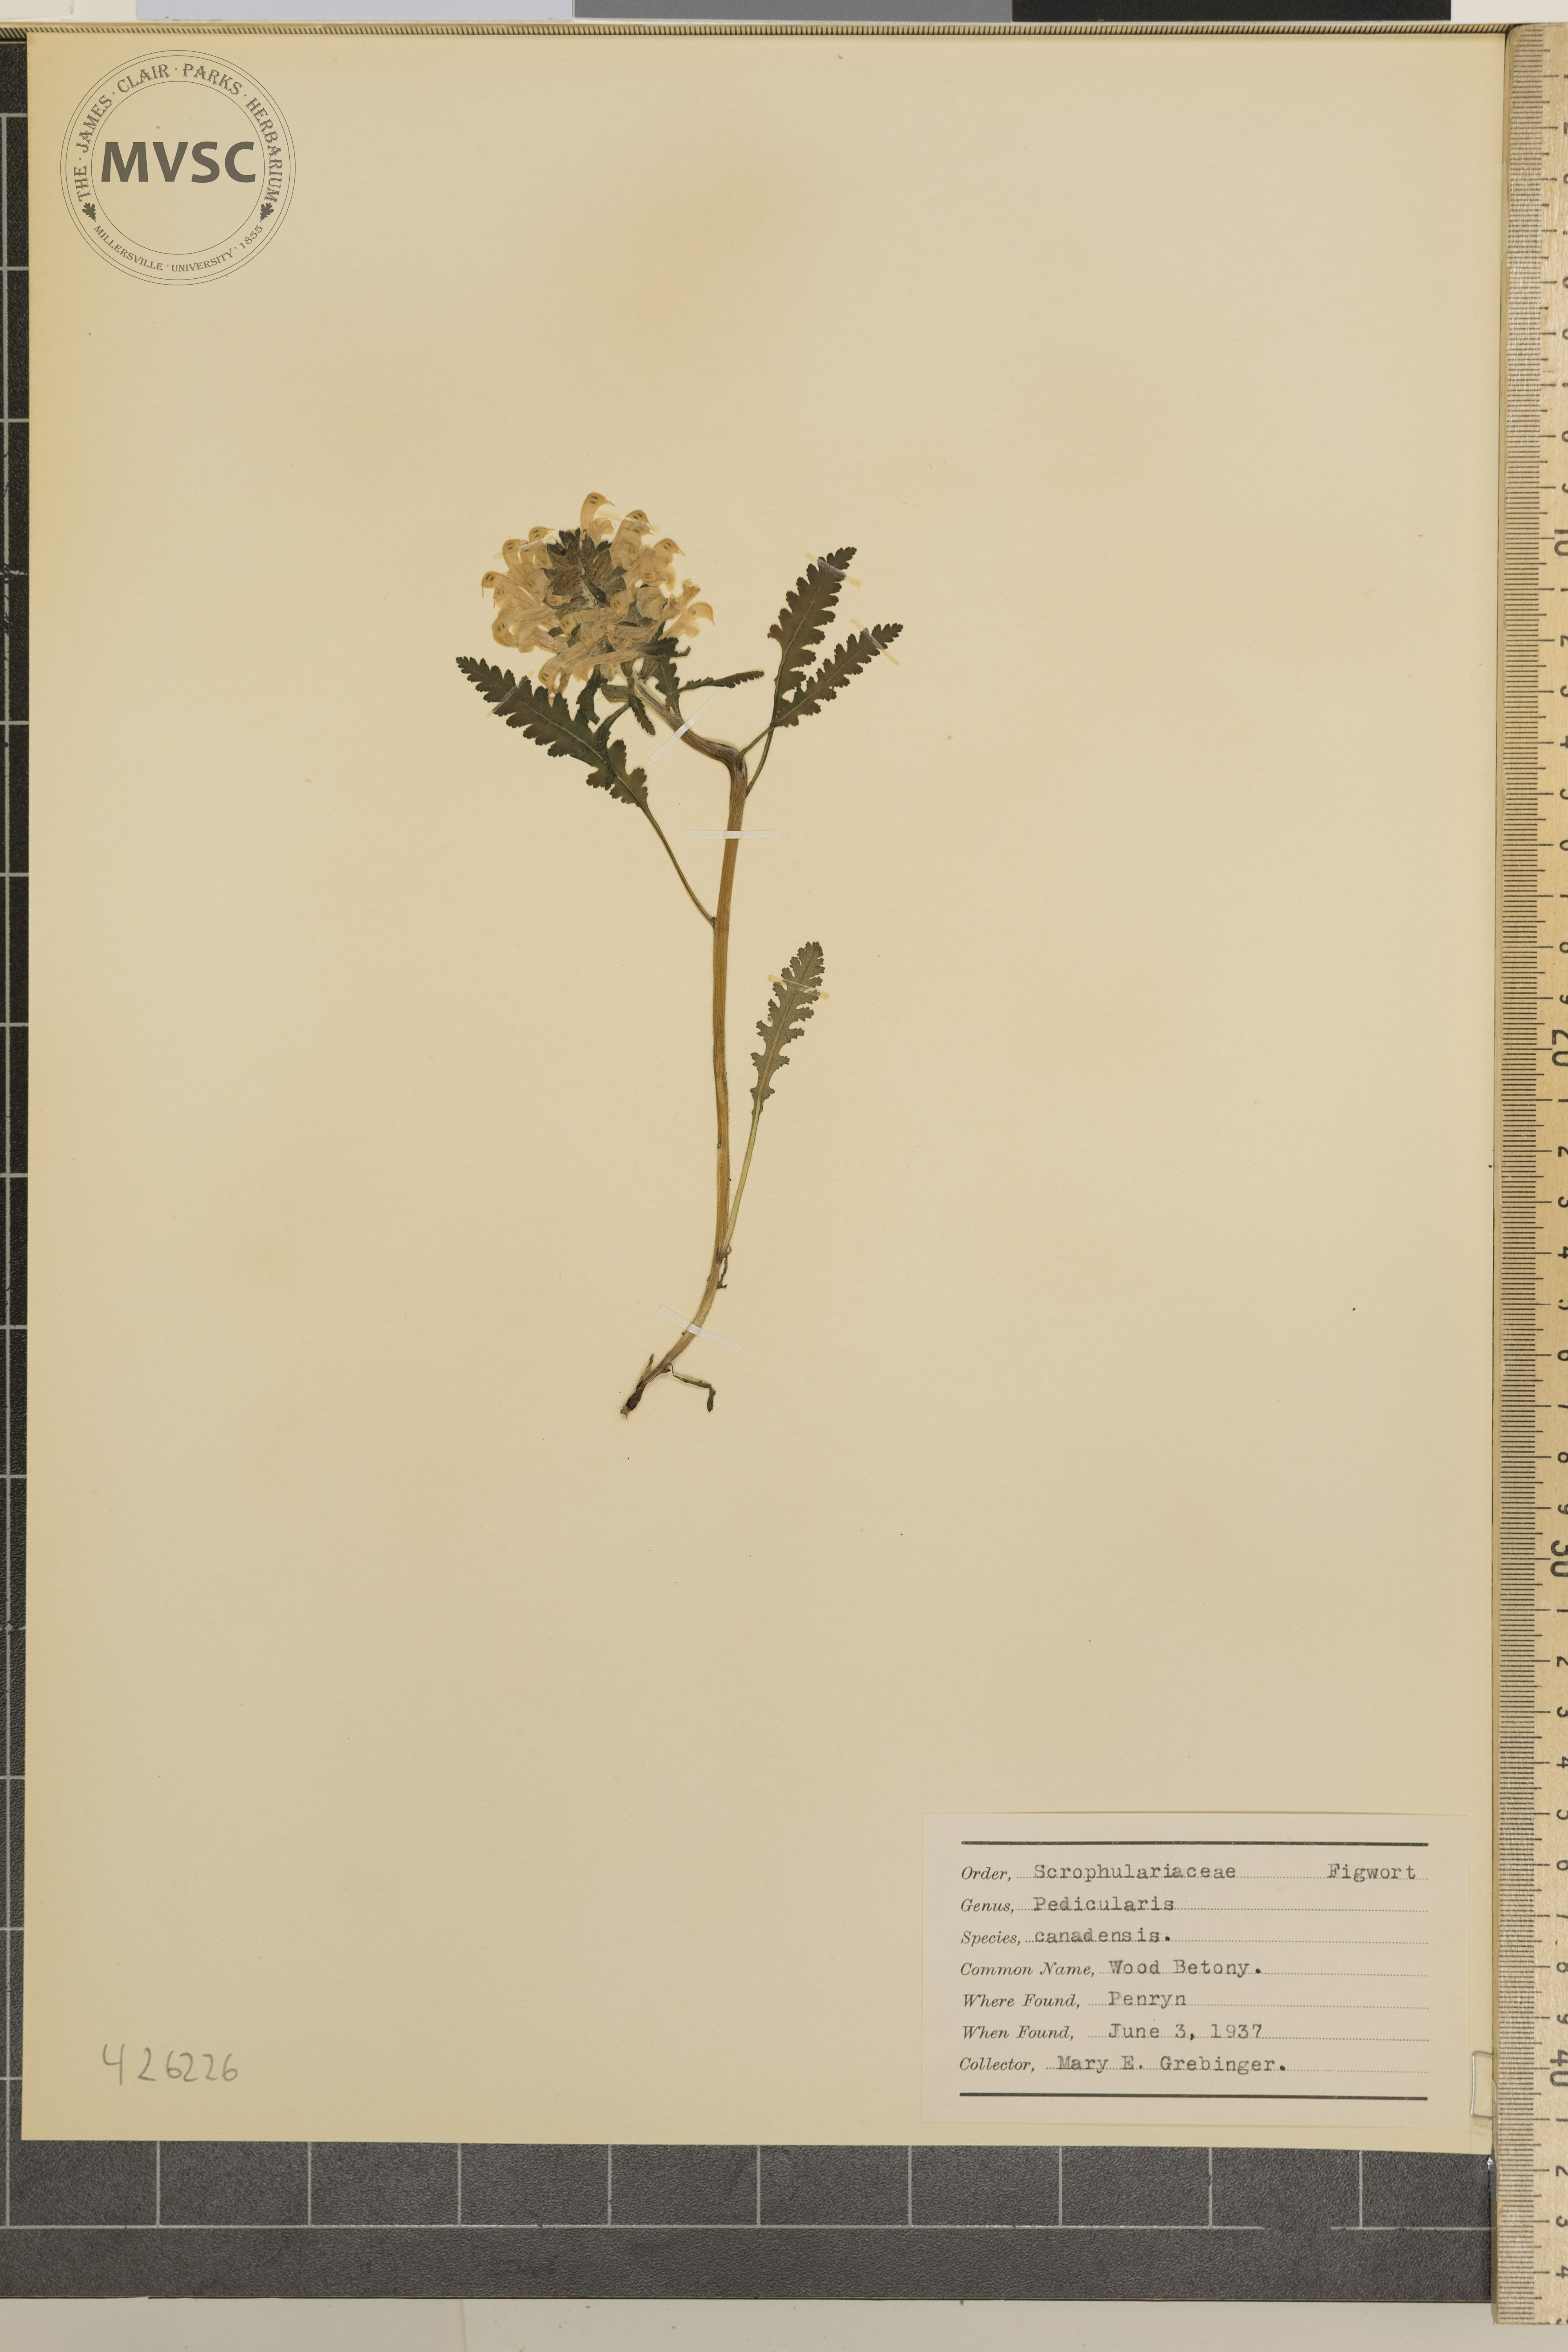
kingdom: Plantae
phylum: Tracheophyta
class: Magnoliopsida
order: Lamiales
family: Orobanchaceae
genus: Pedicularis
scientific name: Pedicularis canadensis
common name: Wood betony
